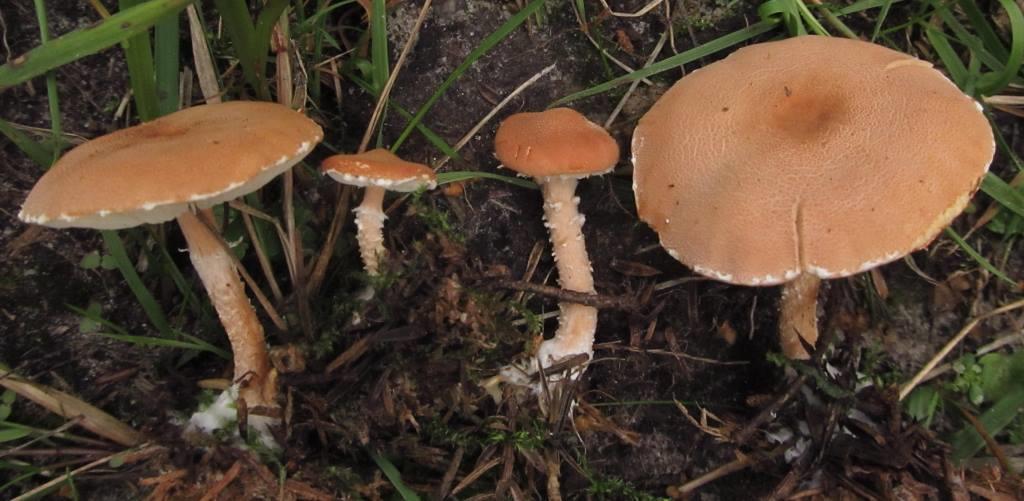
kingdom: Fungi
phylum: Basidiomycota
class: Agaricomycetes
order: Agaricales
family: Agaricaceae
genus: Cystodermella
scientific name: Cystodermella adnatifolia
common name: koralrød grynhat
